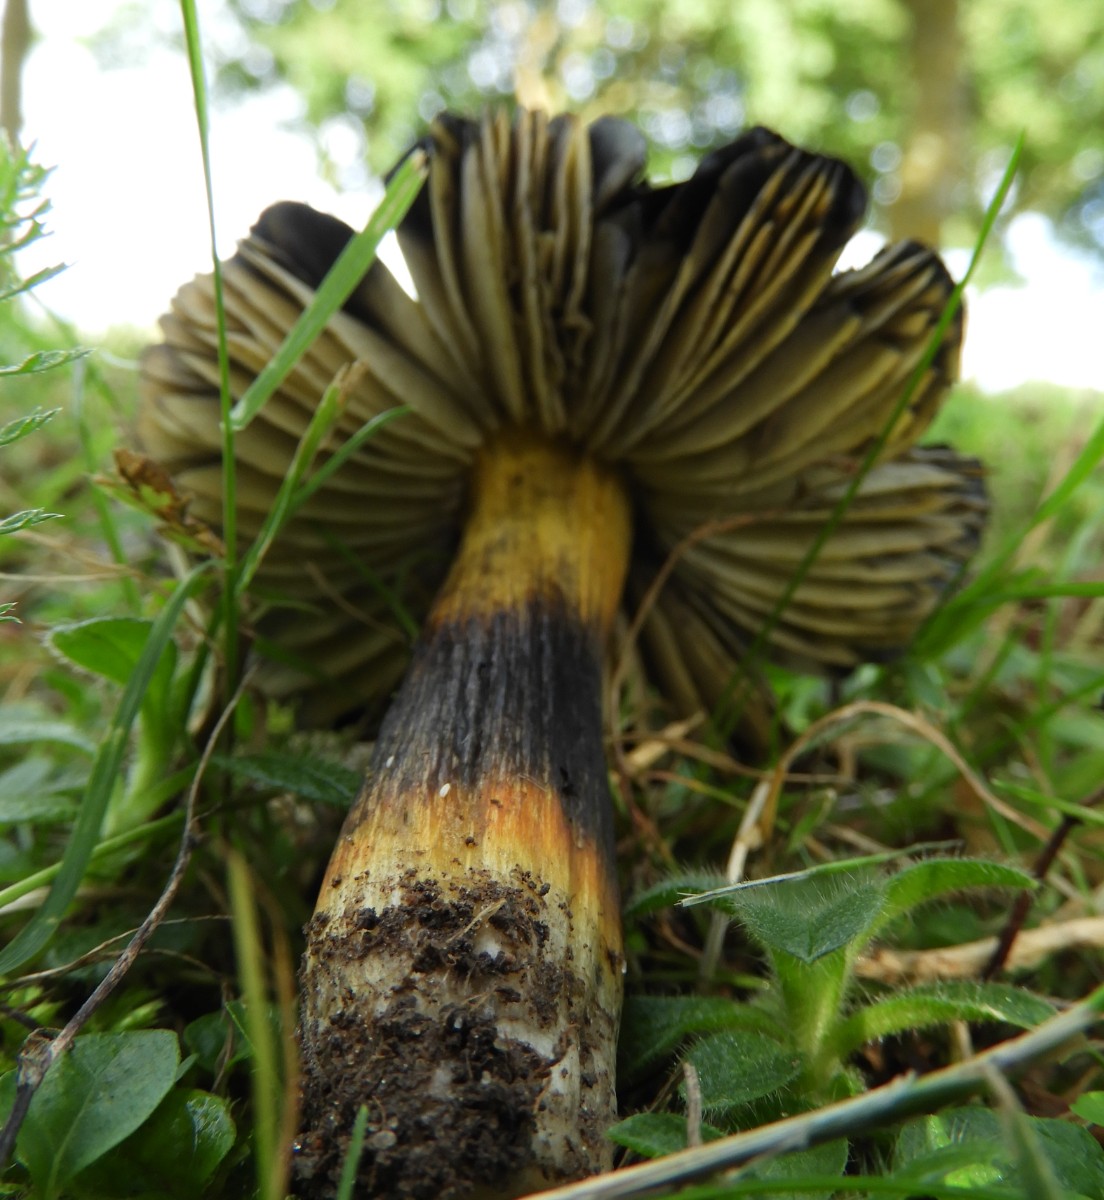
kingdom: Fungi
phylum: Basidiomycota
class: Agaricomycetes
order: Agaricales
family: Hygrophoraceae
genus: Hygrocybe
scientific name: Hygrocybe conica
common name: kegle-vokshat
